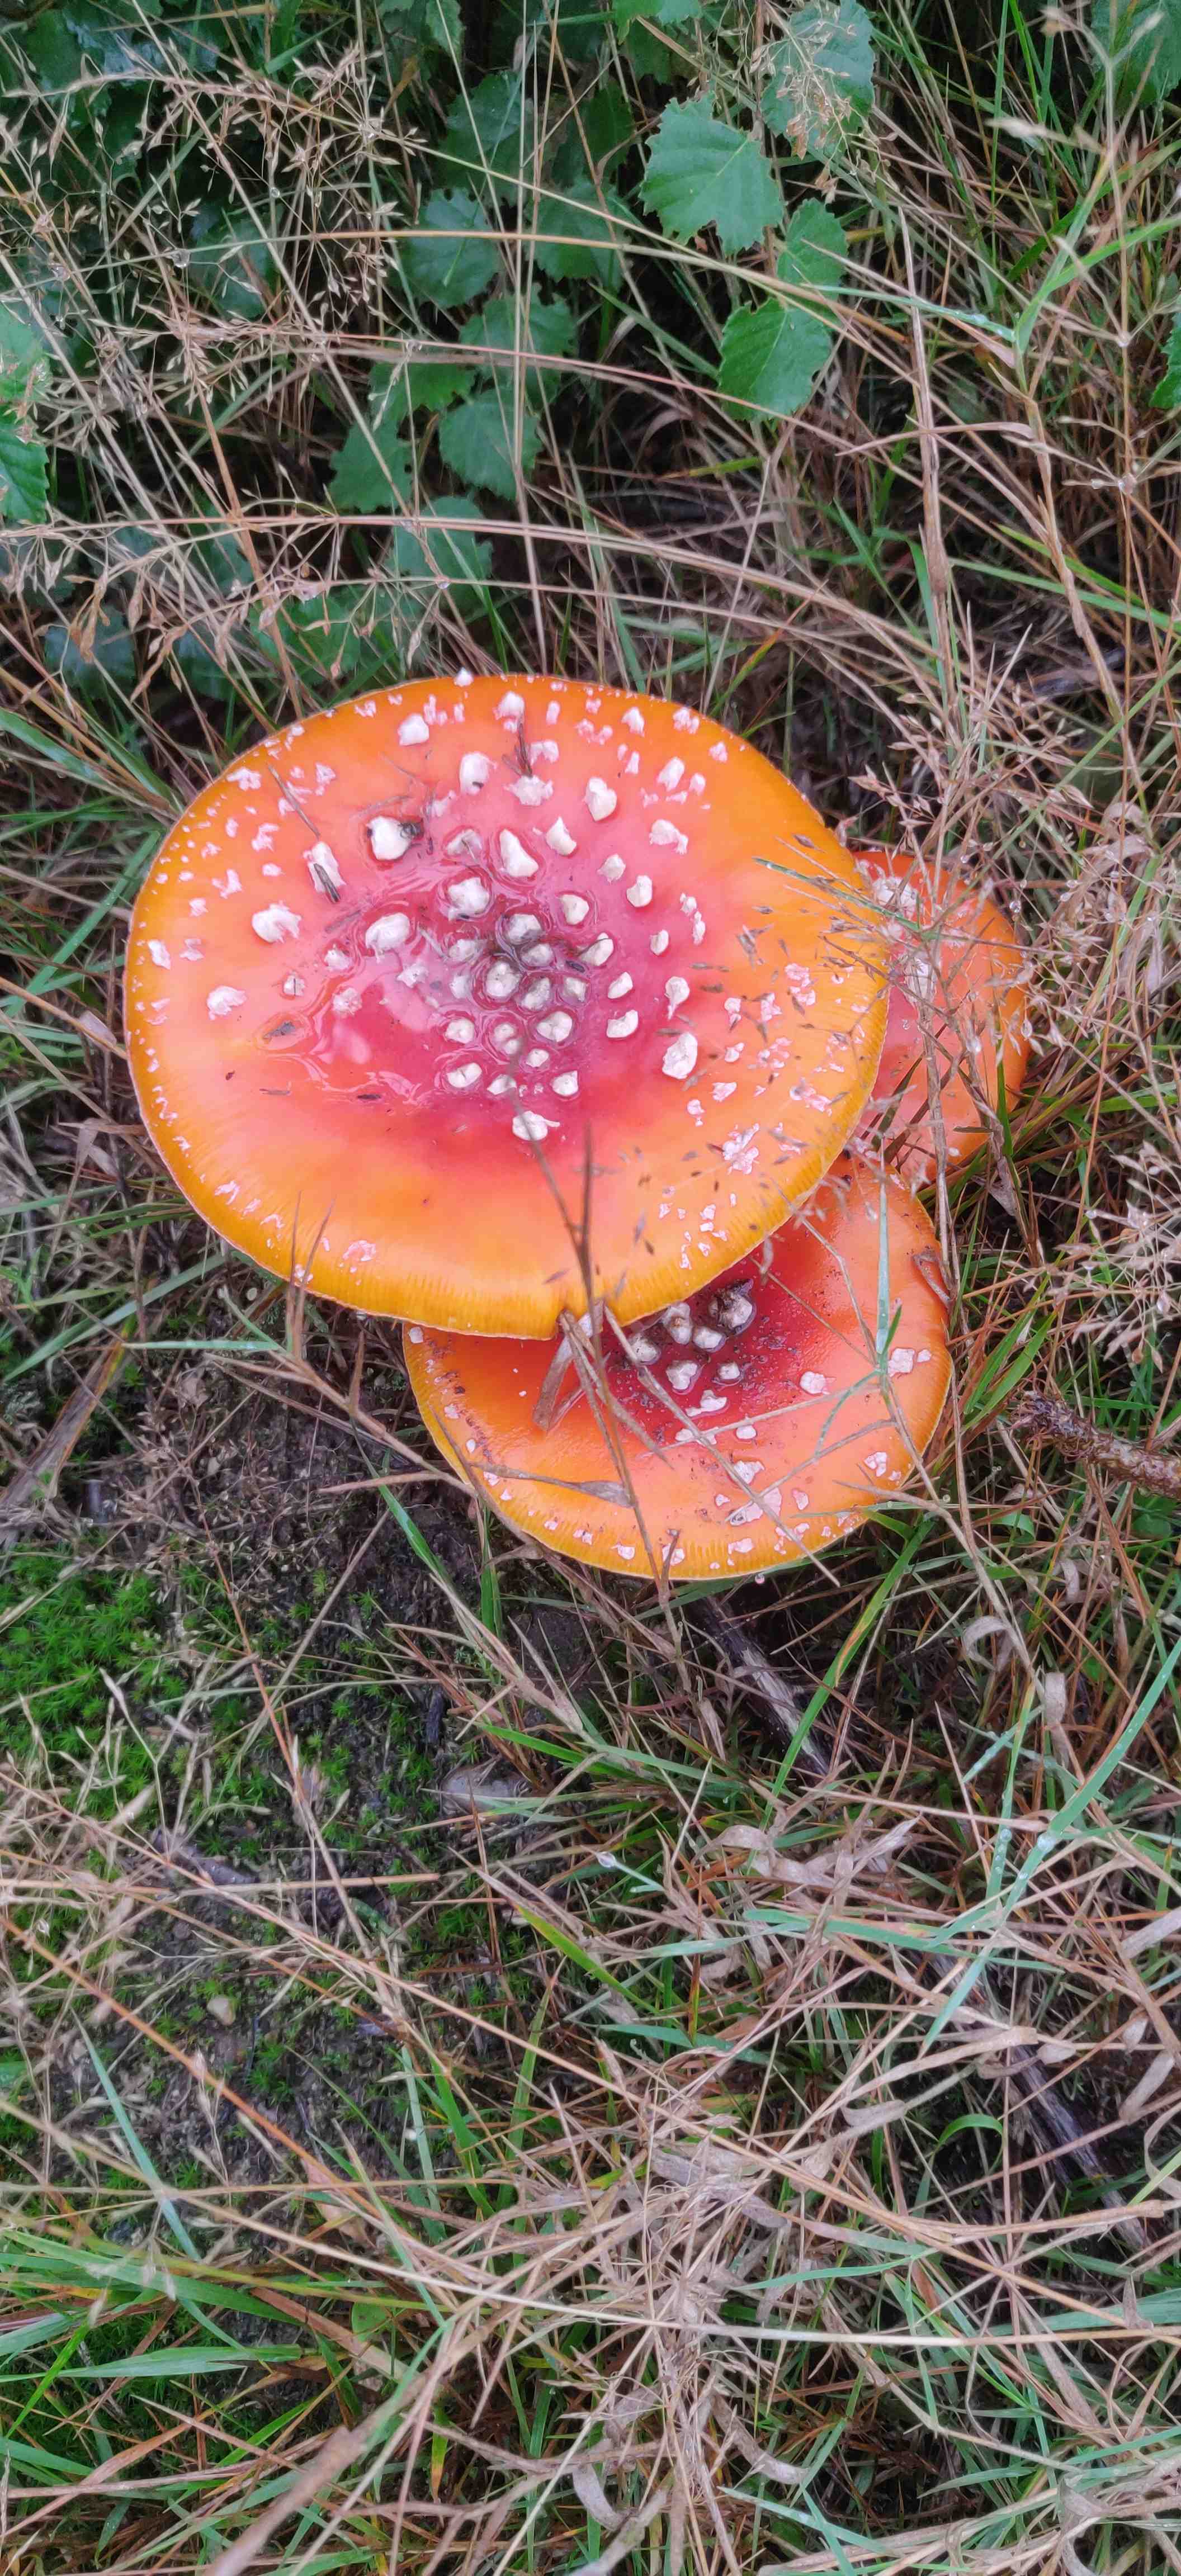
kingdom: Fungi
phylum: Basidiomycota
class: Agaricomycetes
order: Agaricales
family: Amanitaceae
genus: Amanita
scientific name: Amanita muscaria
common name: rød fluesvamp
